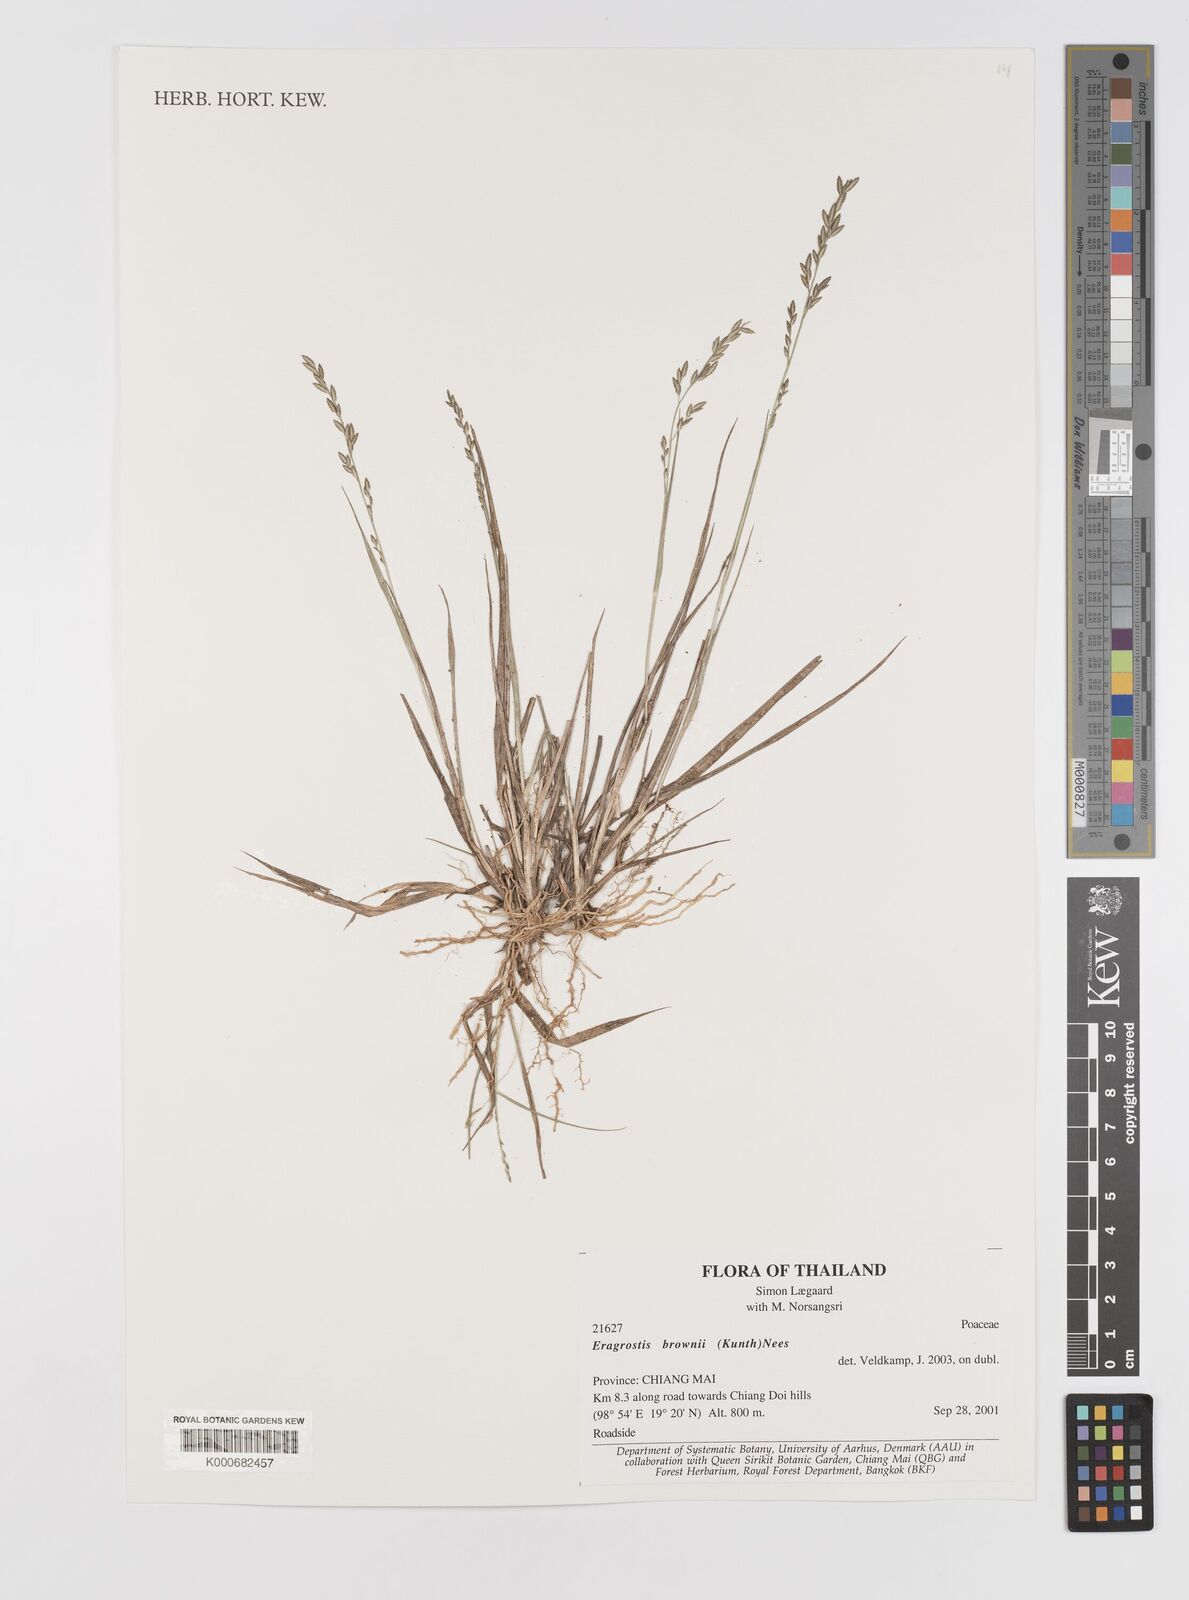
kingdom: Plantae
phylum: Tracheophyta
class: Liliopsida
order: Poales
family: Poaceae
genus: Eragrostis
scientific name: Eragrostis brownii
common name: Lovegrass
